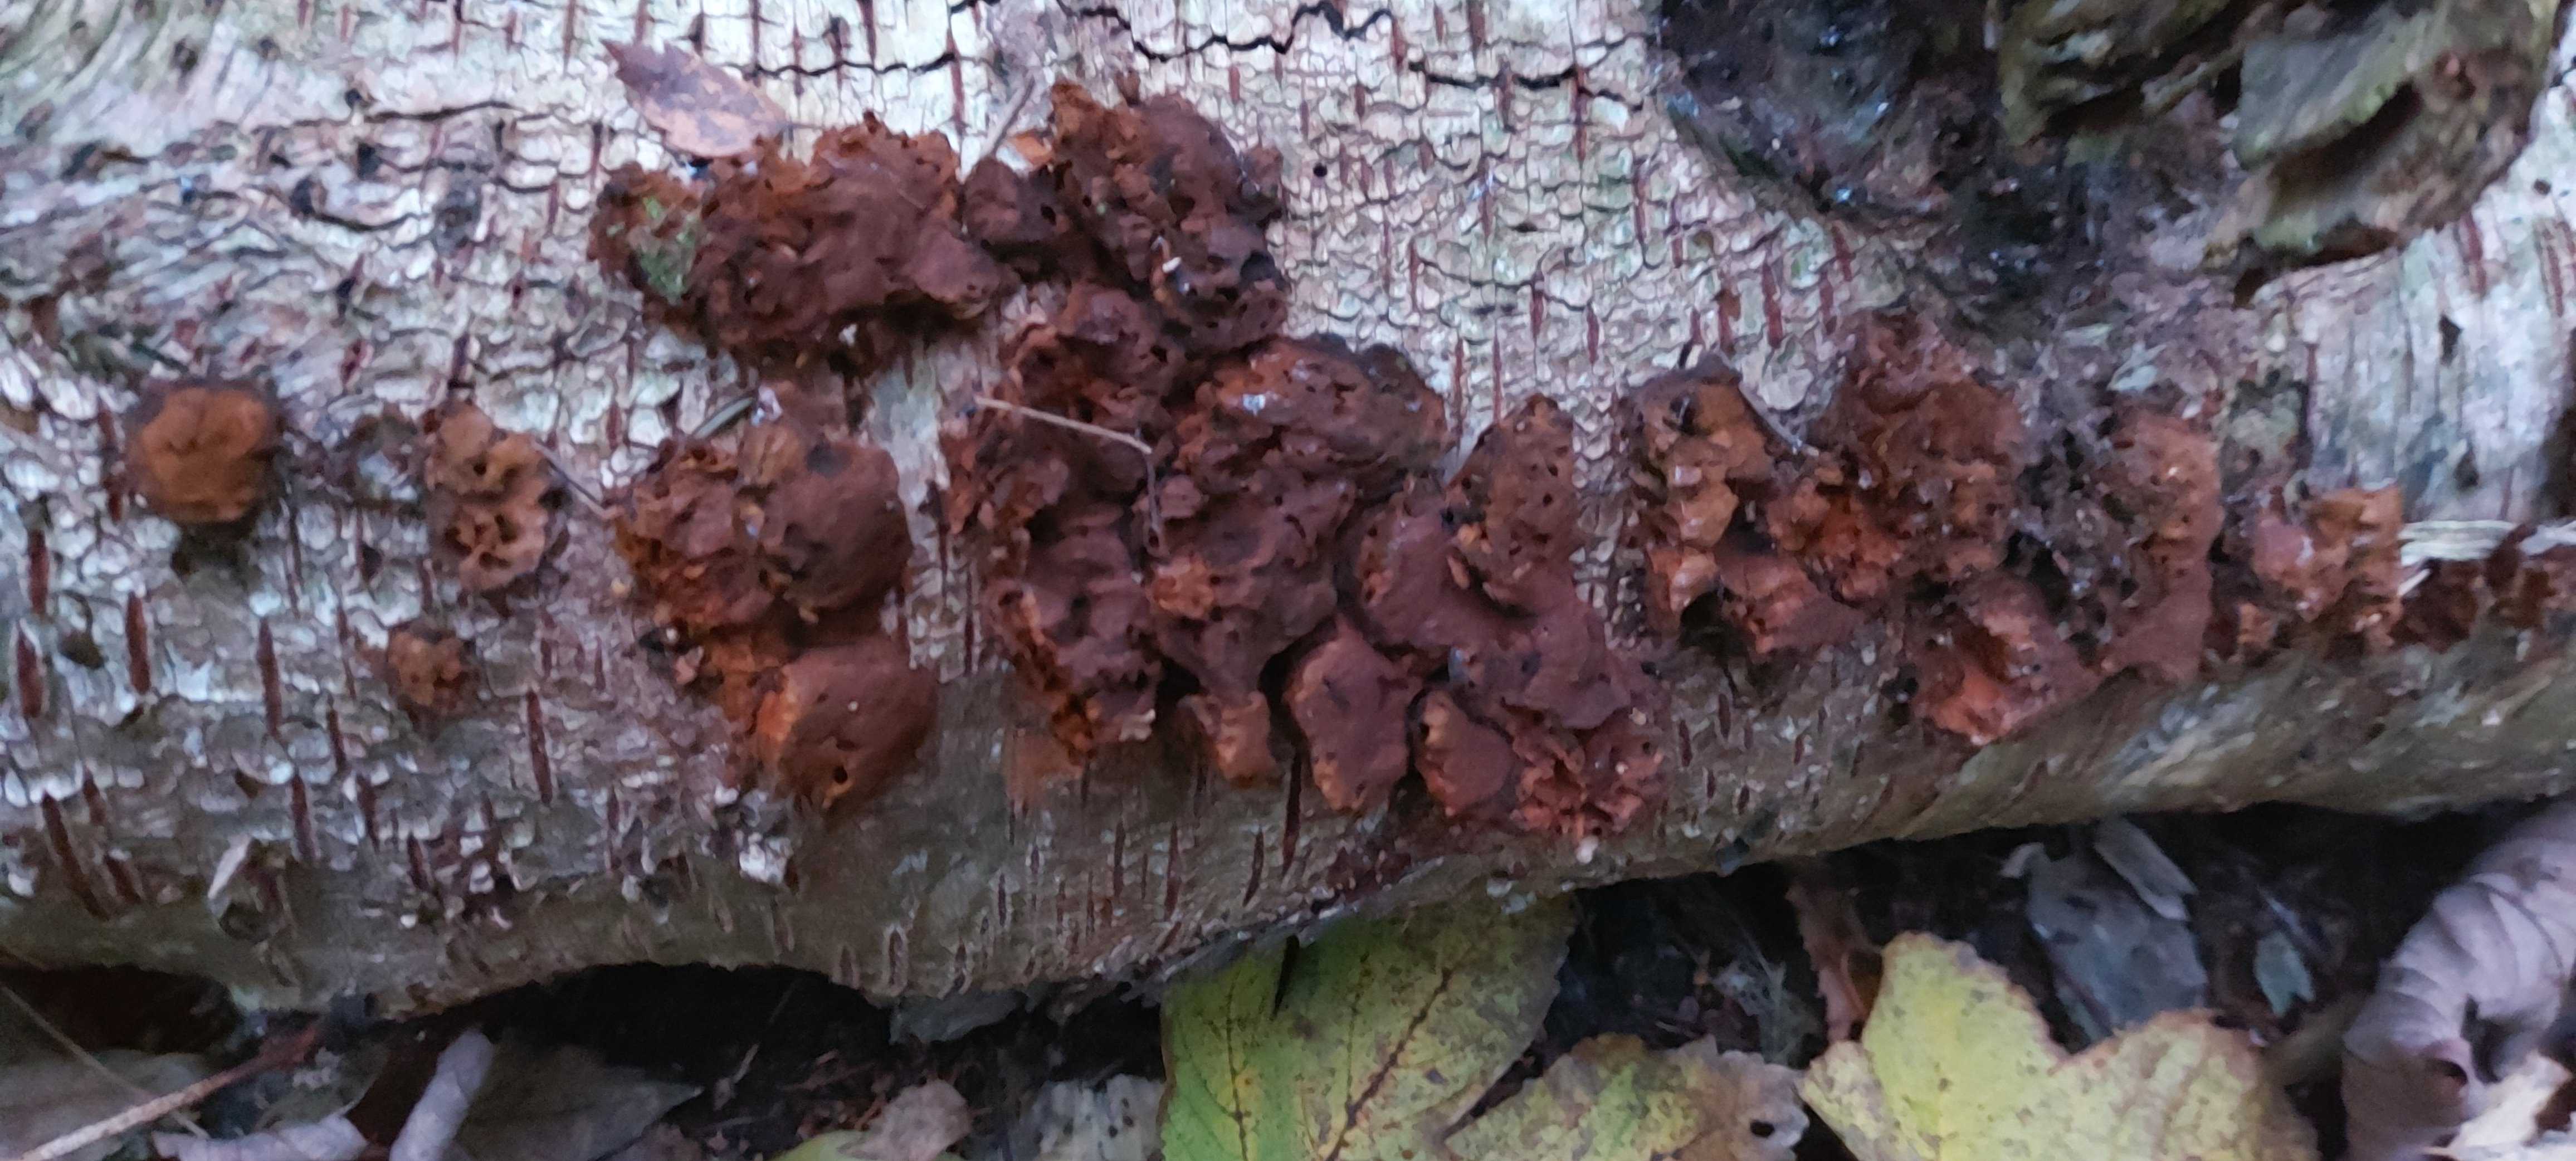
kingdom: Fungi
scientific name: Fungi
